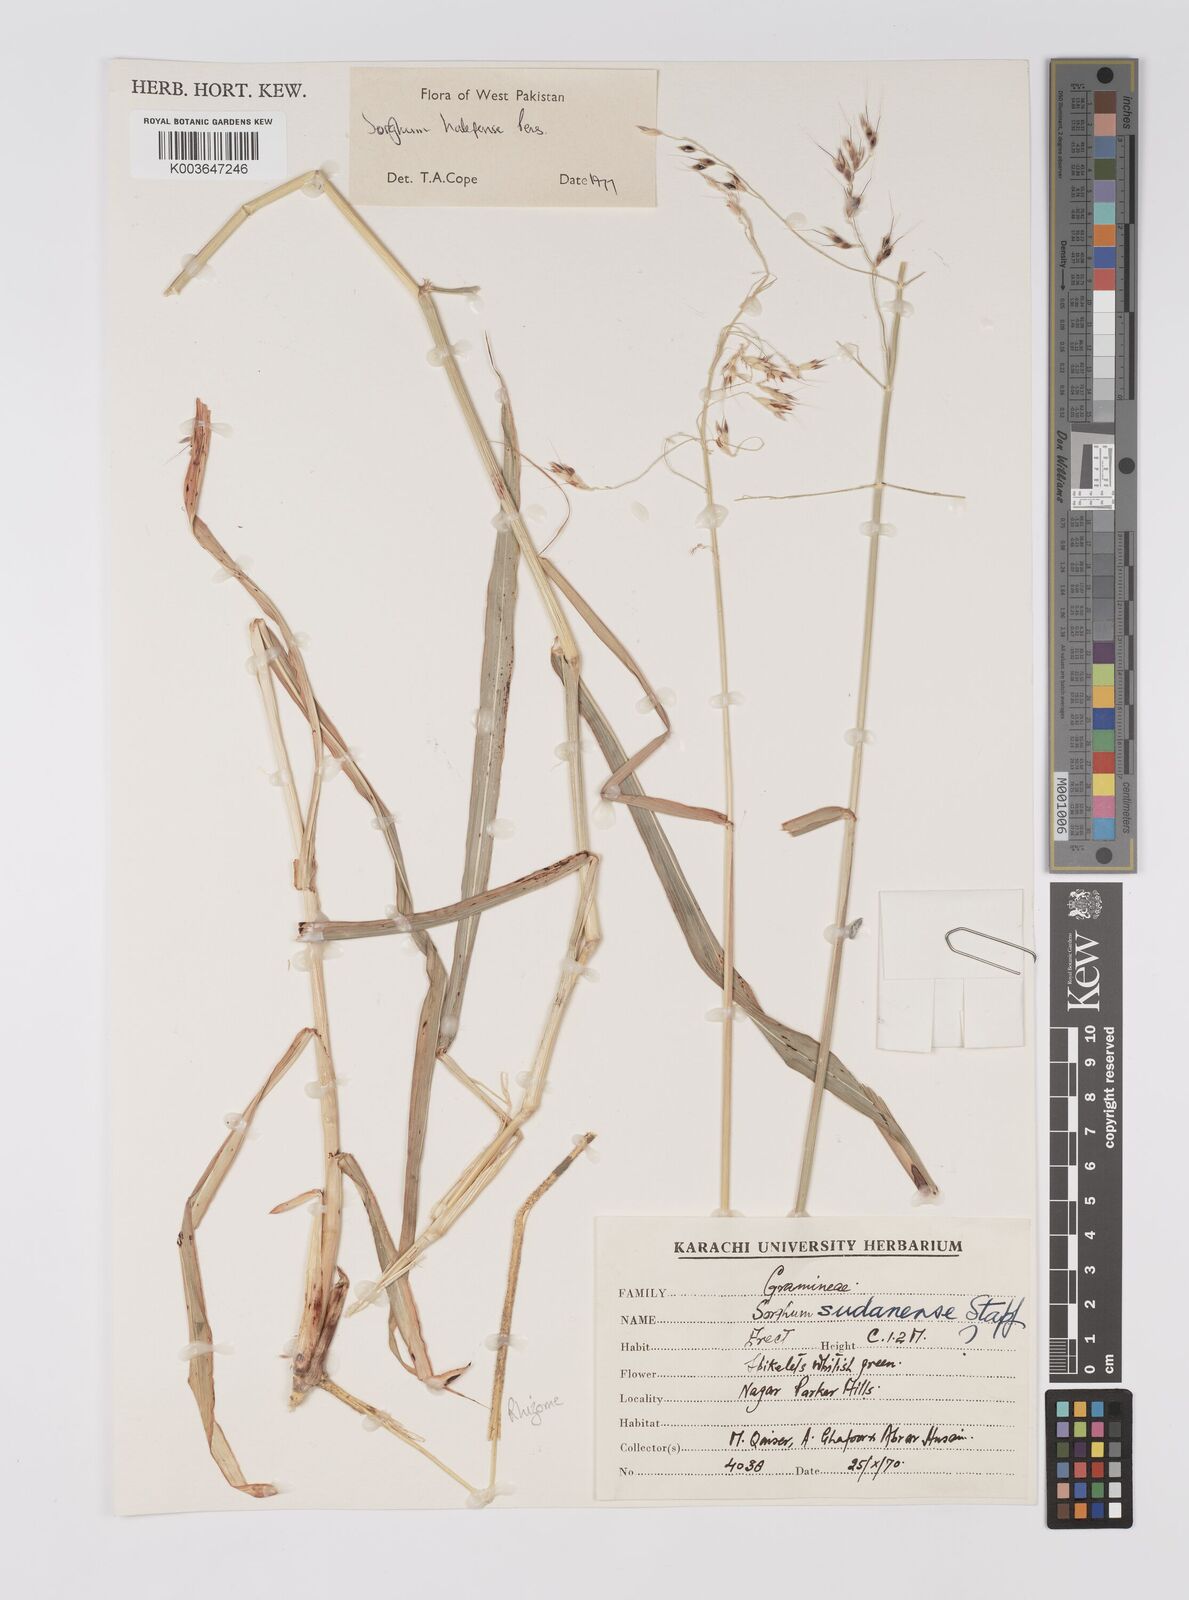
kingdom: Plantae
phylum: Tracheophyta
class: Liliopsida
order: Poales
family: Poaceae
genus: Sorghum
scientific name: Sorghum halepense
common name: Johnson-grass
